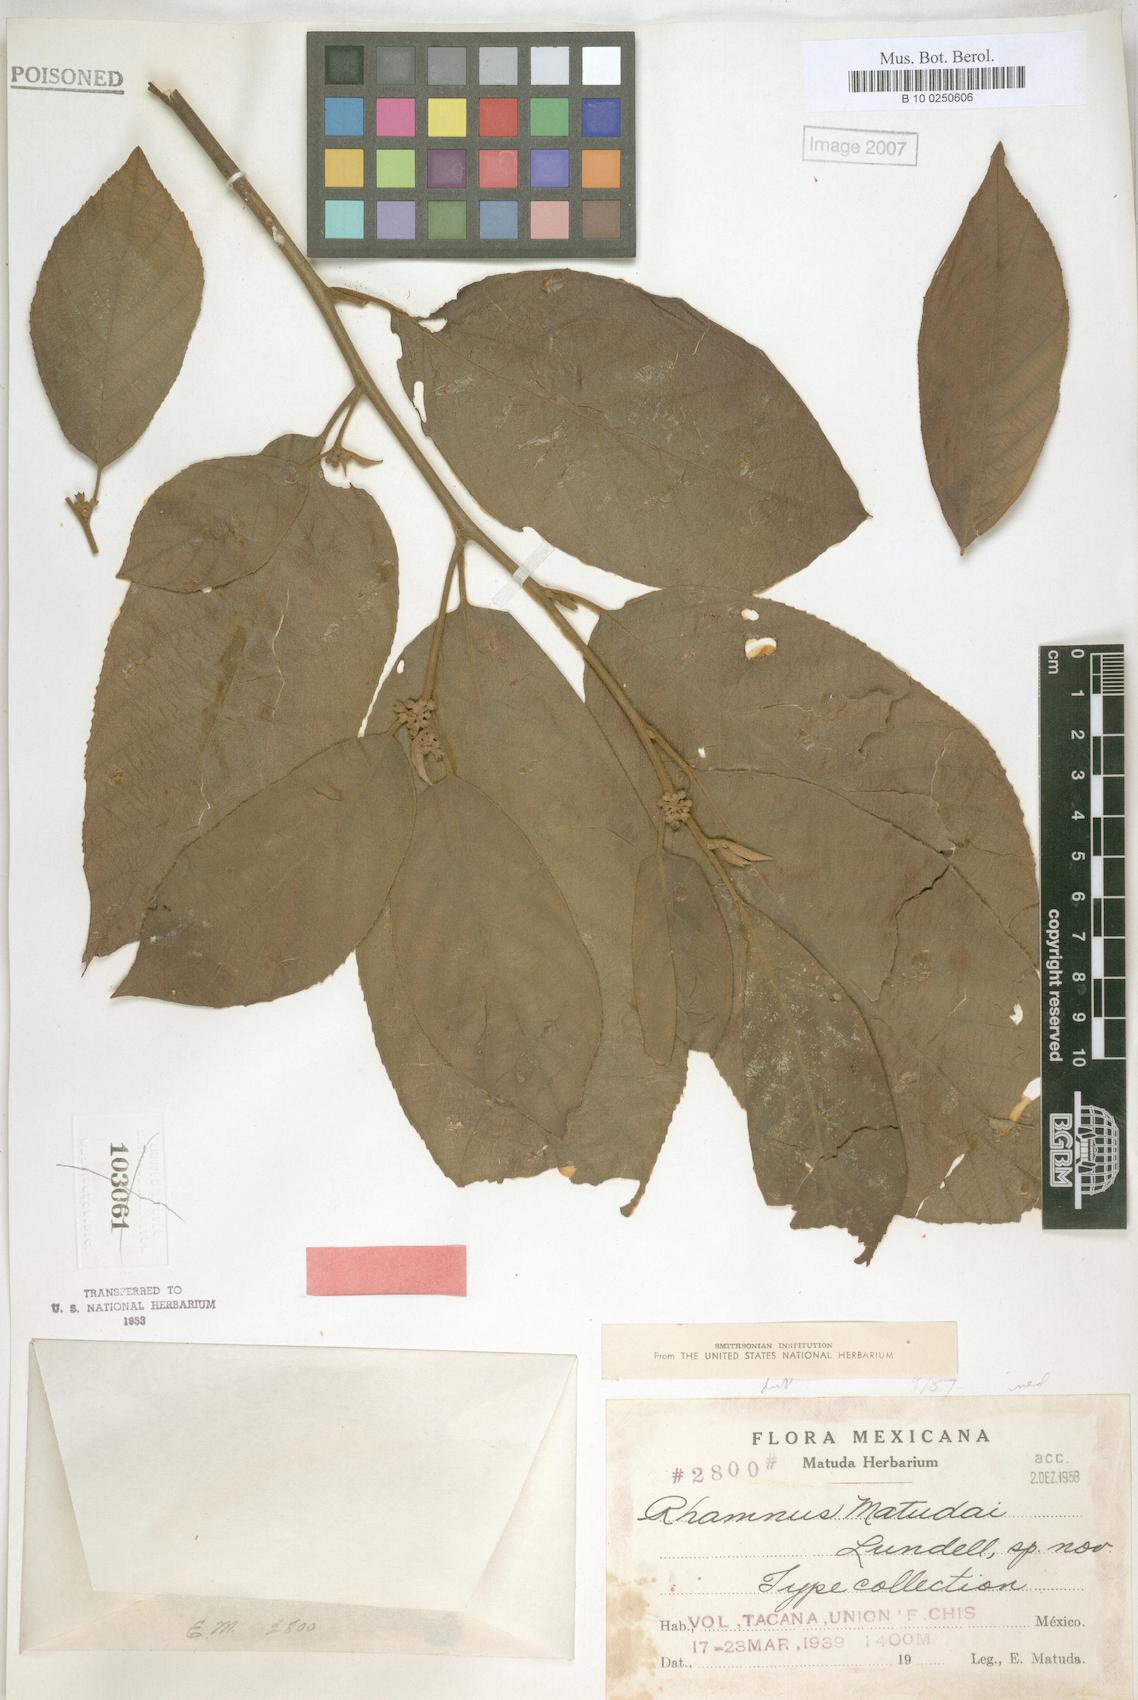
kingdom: Plantae
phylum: Tracheophyta
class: Magnoliopsida
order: Rosales
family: Rhamnaceae
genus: Rhamnus
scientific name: Rhamnus matudai
